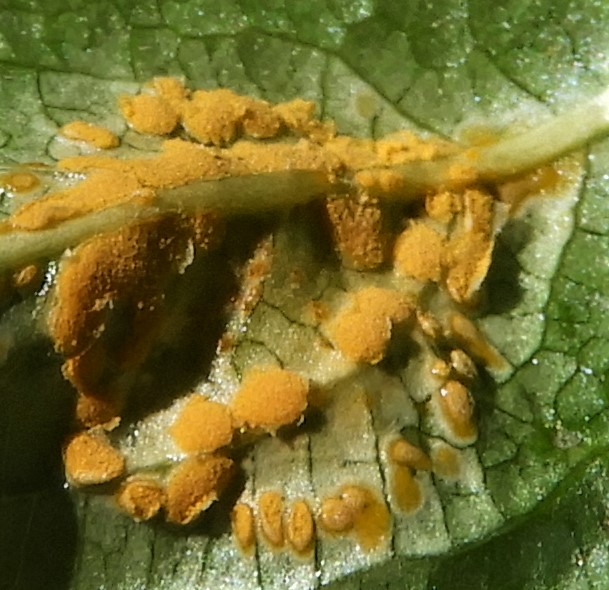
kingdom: Fungi
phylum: Basidiomycota
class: Pucciniomycetes
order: Pucciniales
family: Melampsoraceae
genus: Melampsora
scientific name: Melampsora populnea
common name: poppel-skorperust
